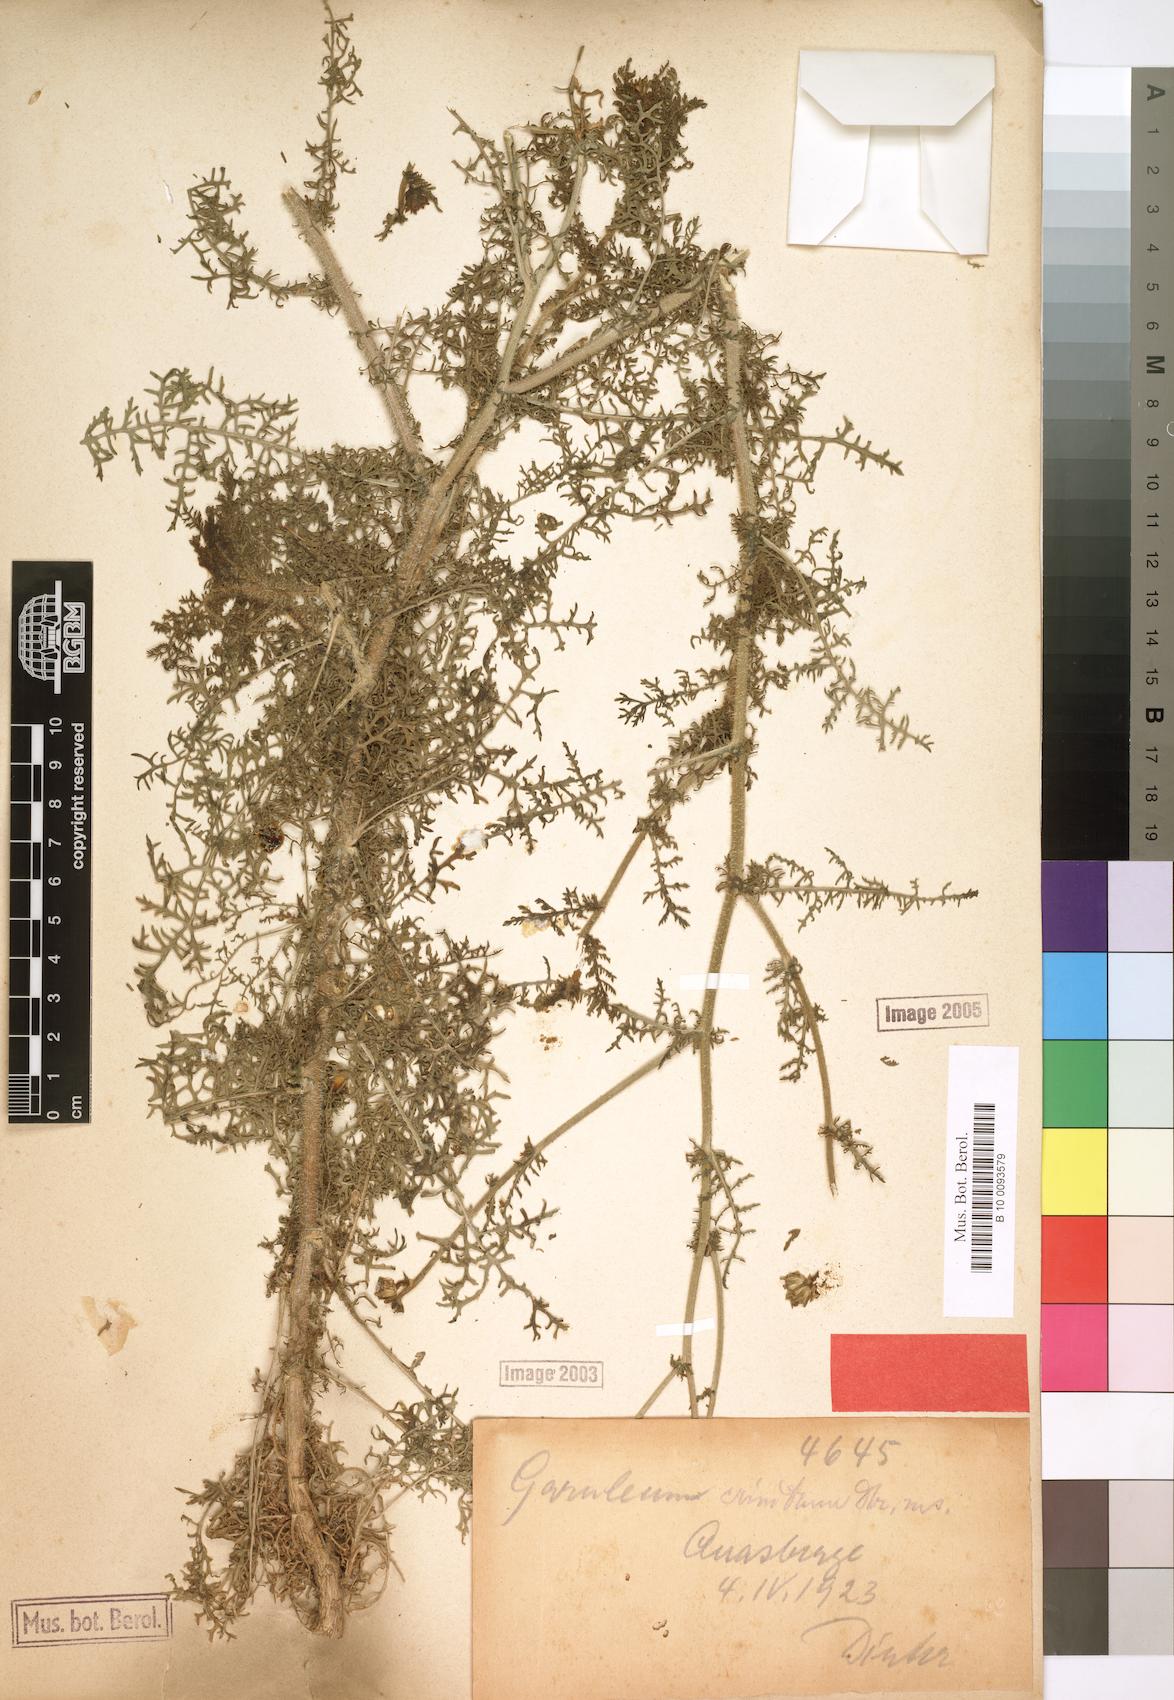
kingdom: Plantae
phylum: Tracheophyta
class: Magnoliopsida
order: Asterales
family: Asteraceae
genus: Garuleum
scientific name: Garuleum schinzii
